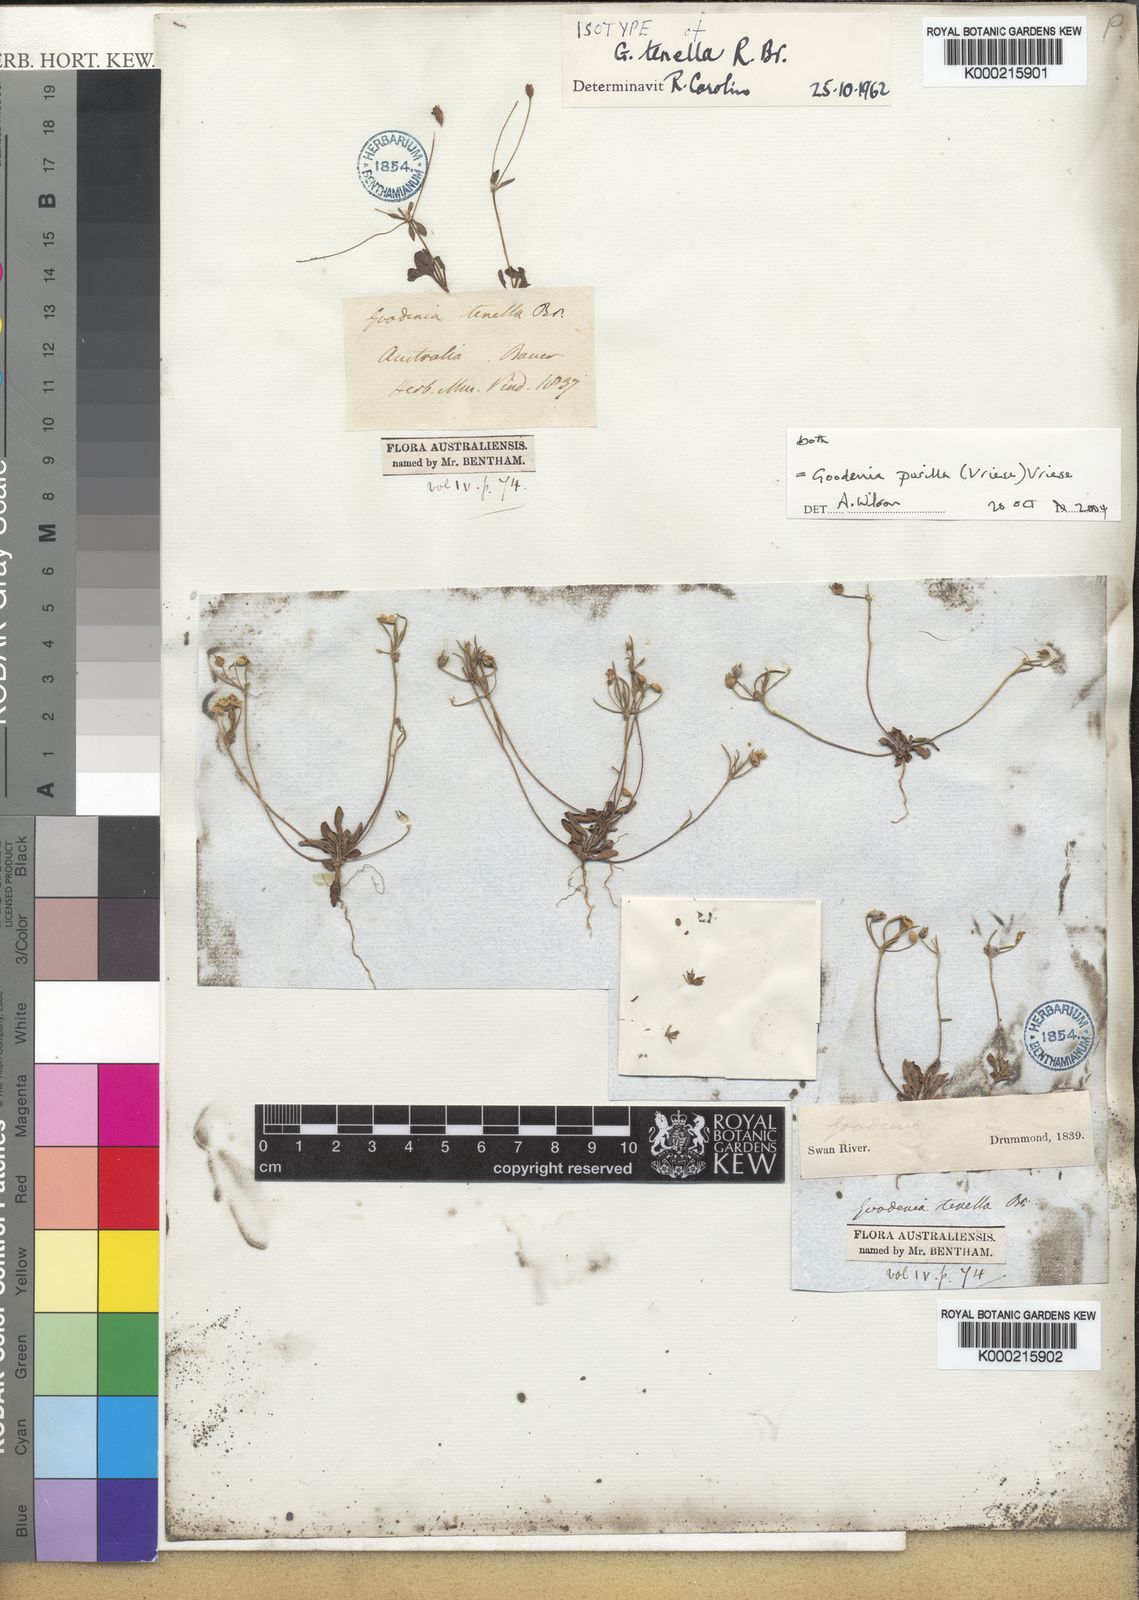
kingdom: Plantae
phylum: Tracheophyta
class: Magnoliopsida
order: Asterales
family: Goodeniaceae
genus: Goodenia
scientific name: Goodenia pusilla
